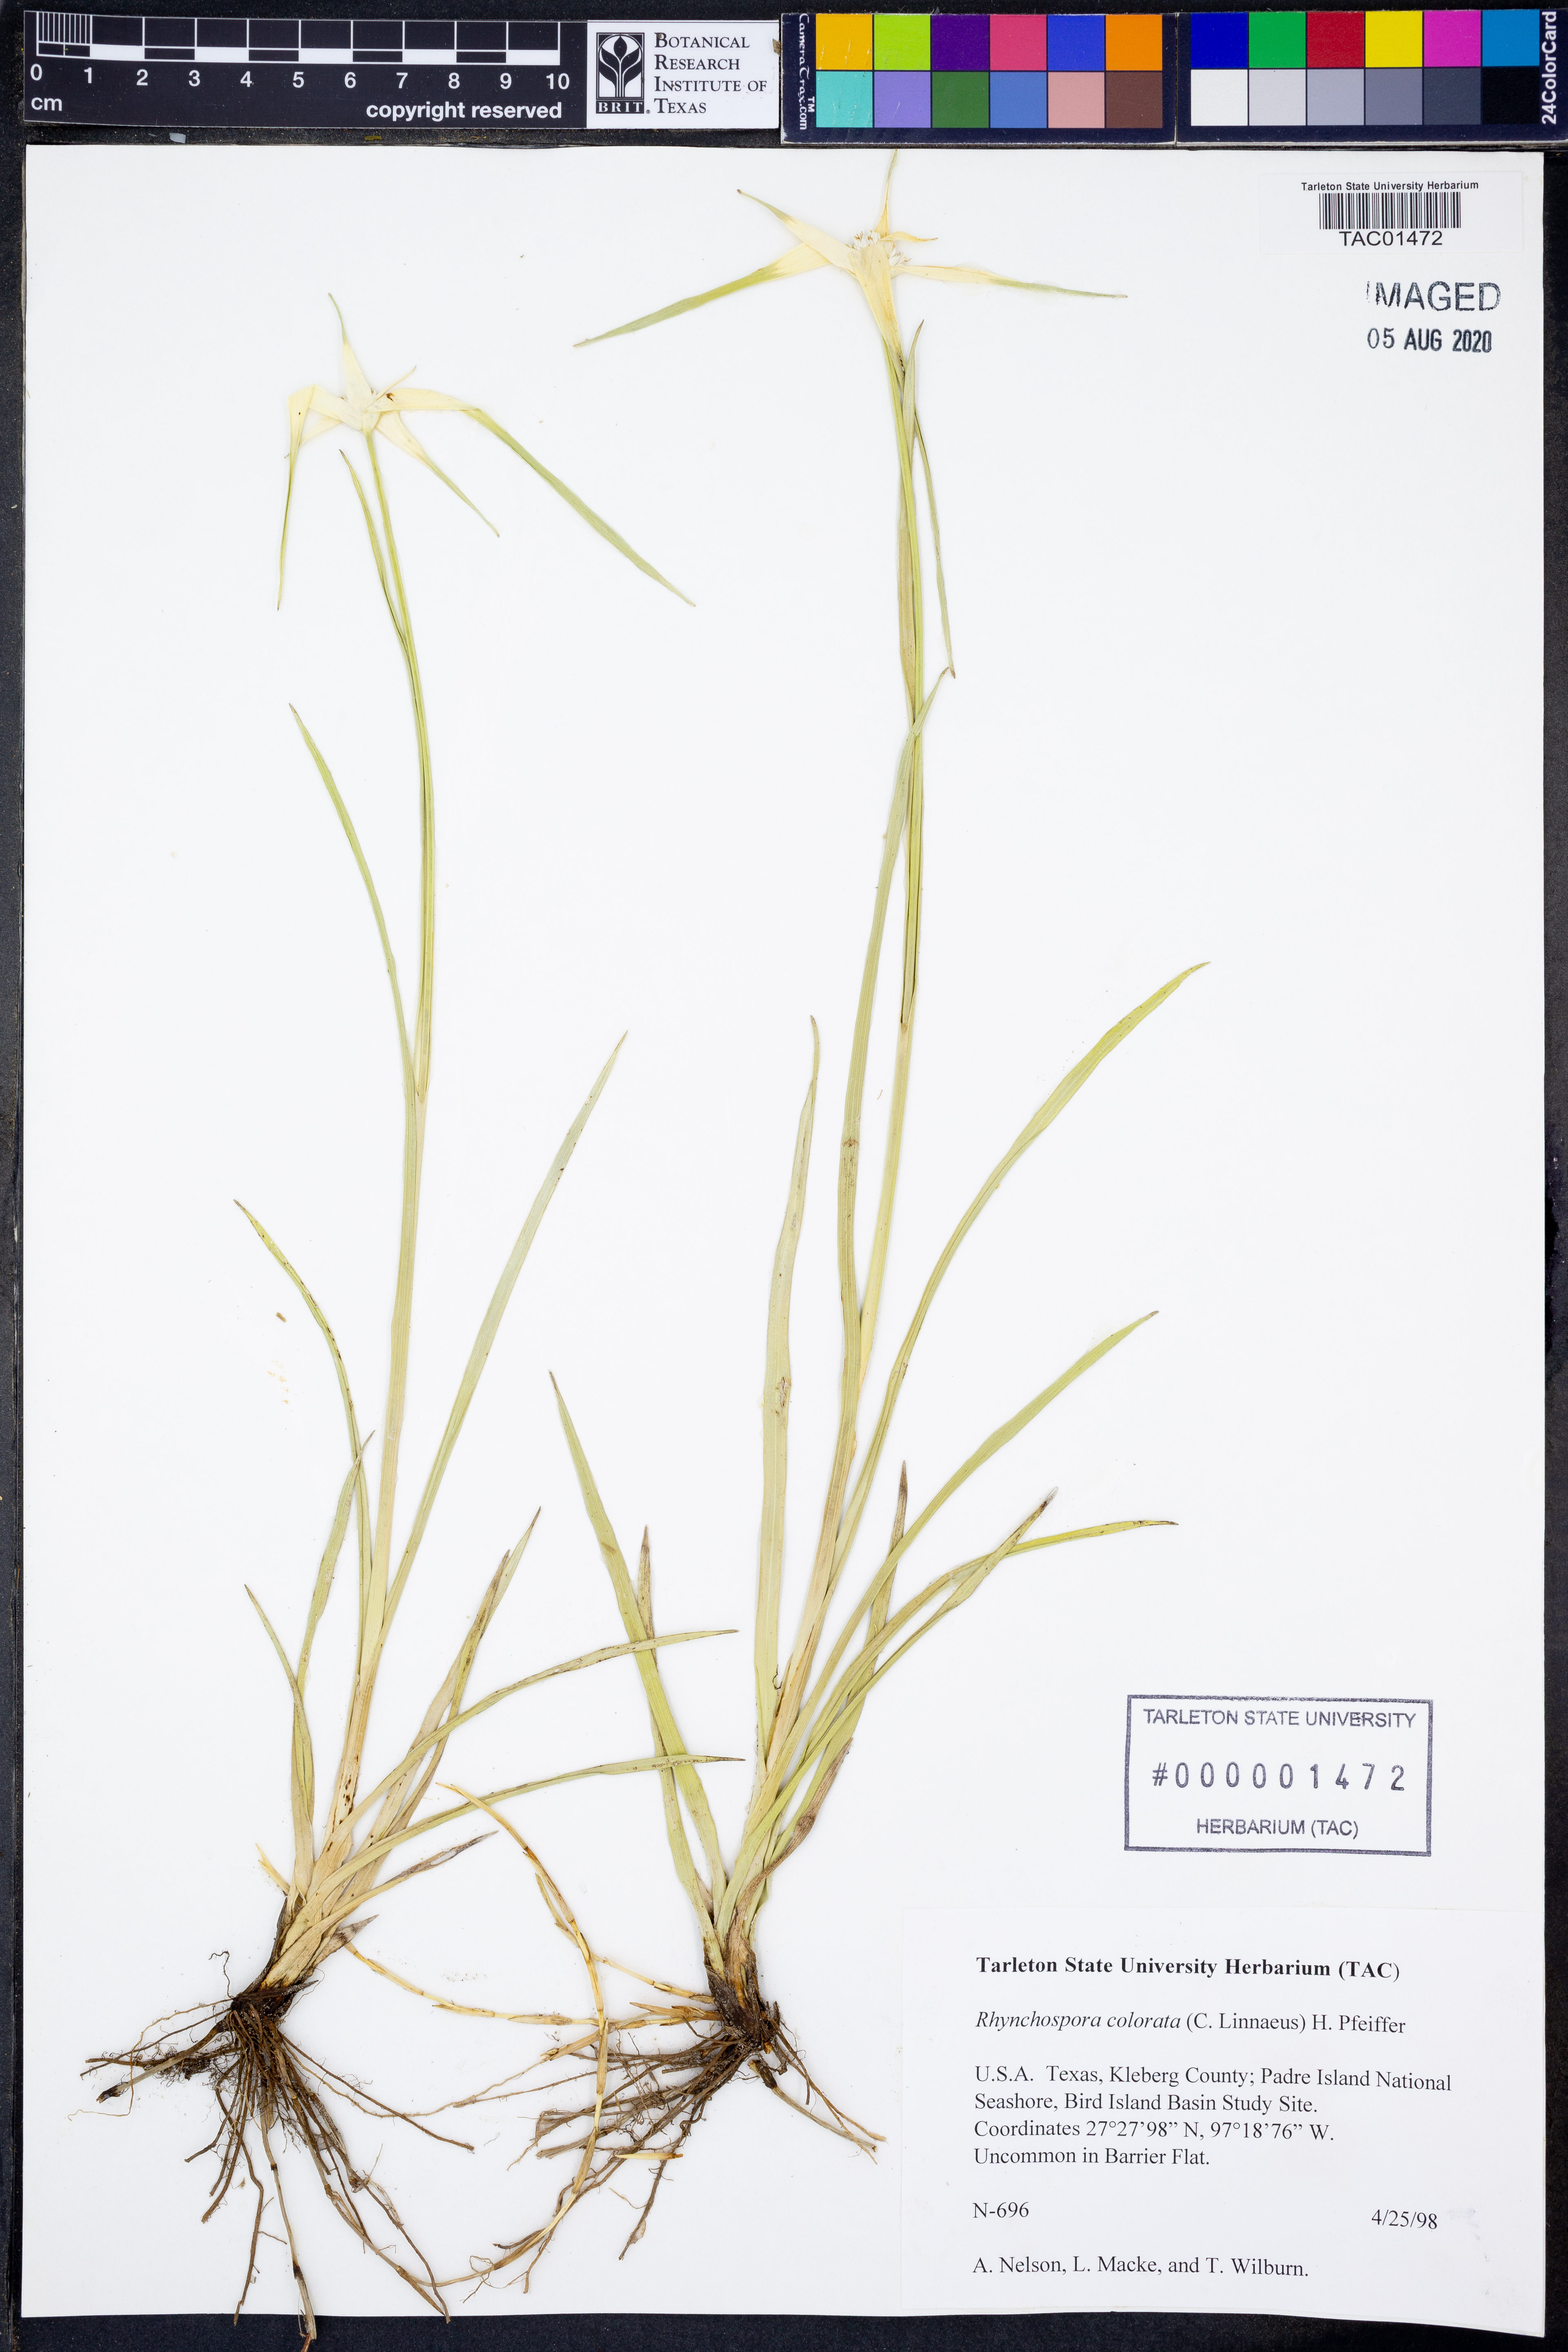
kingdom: Plantae
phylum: Tracheophyta
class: Liliopsida
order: Poales
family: Cyperaceae
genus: Rhynchospora
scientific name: Rhynchospora colorata
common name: Star sedge
